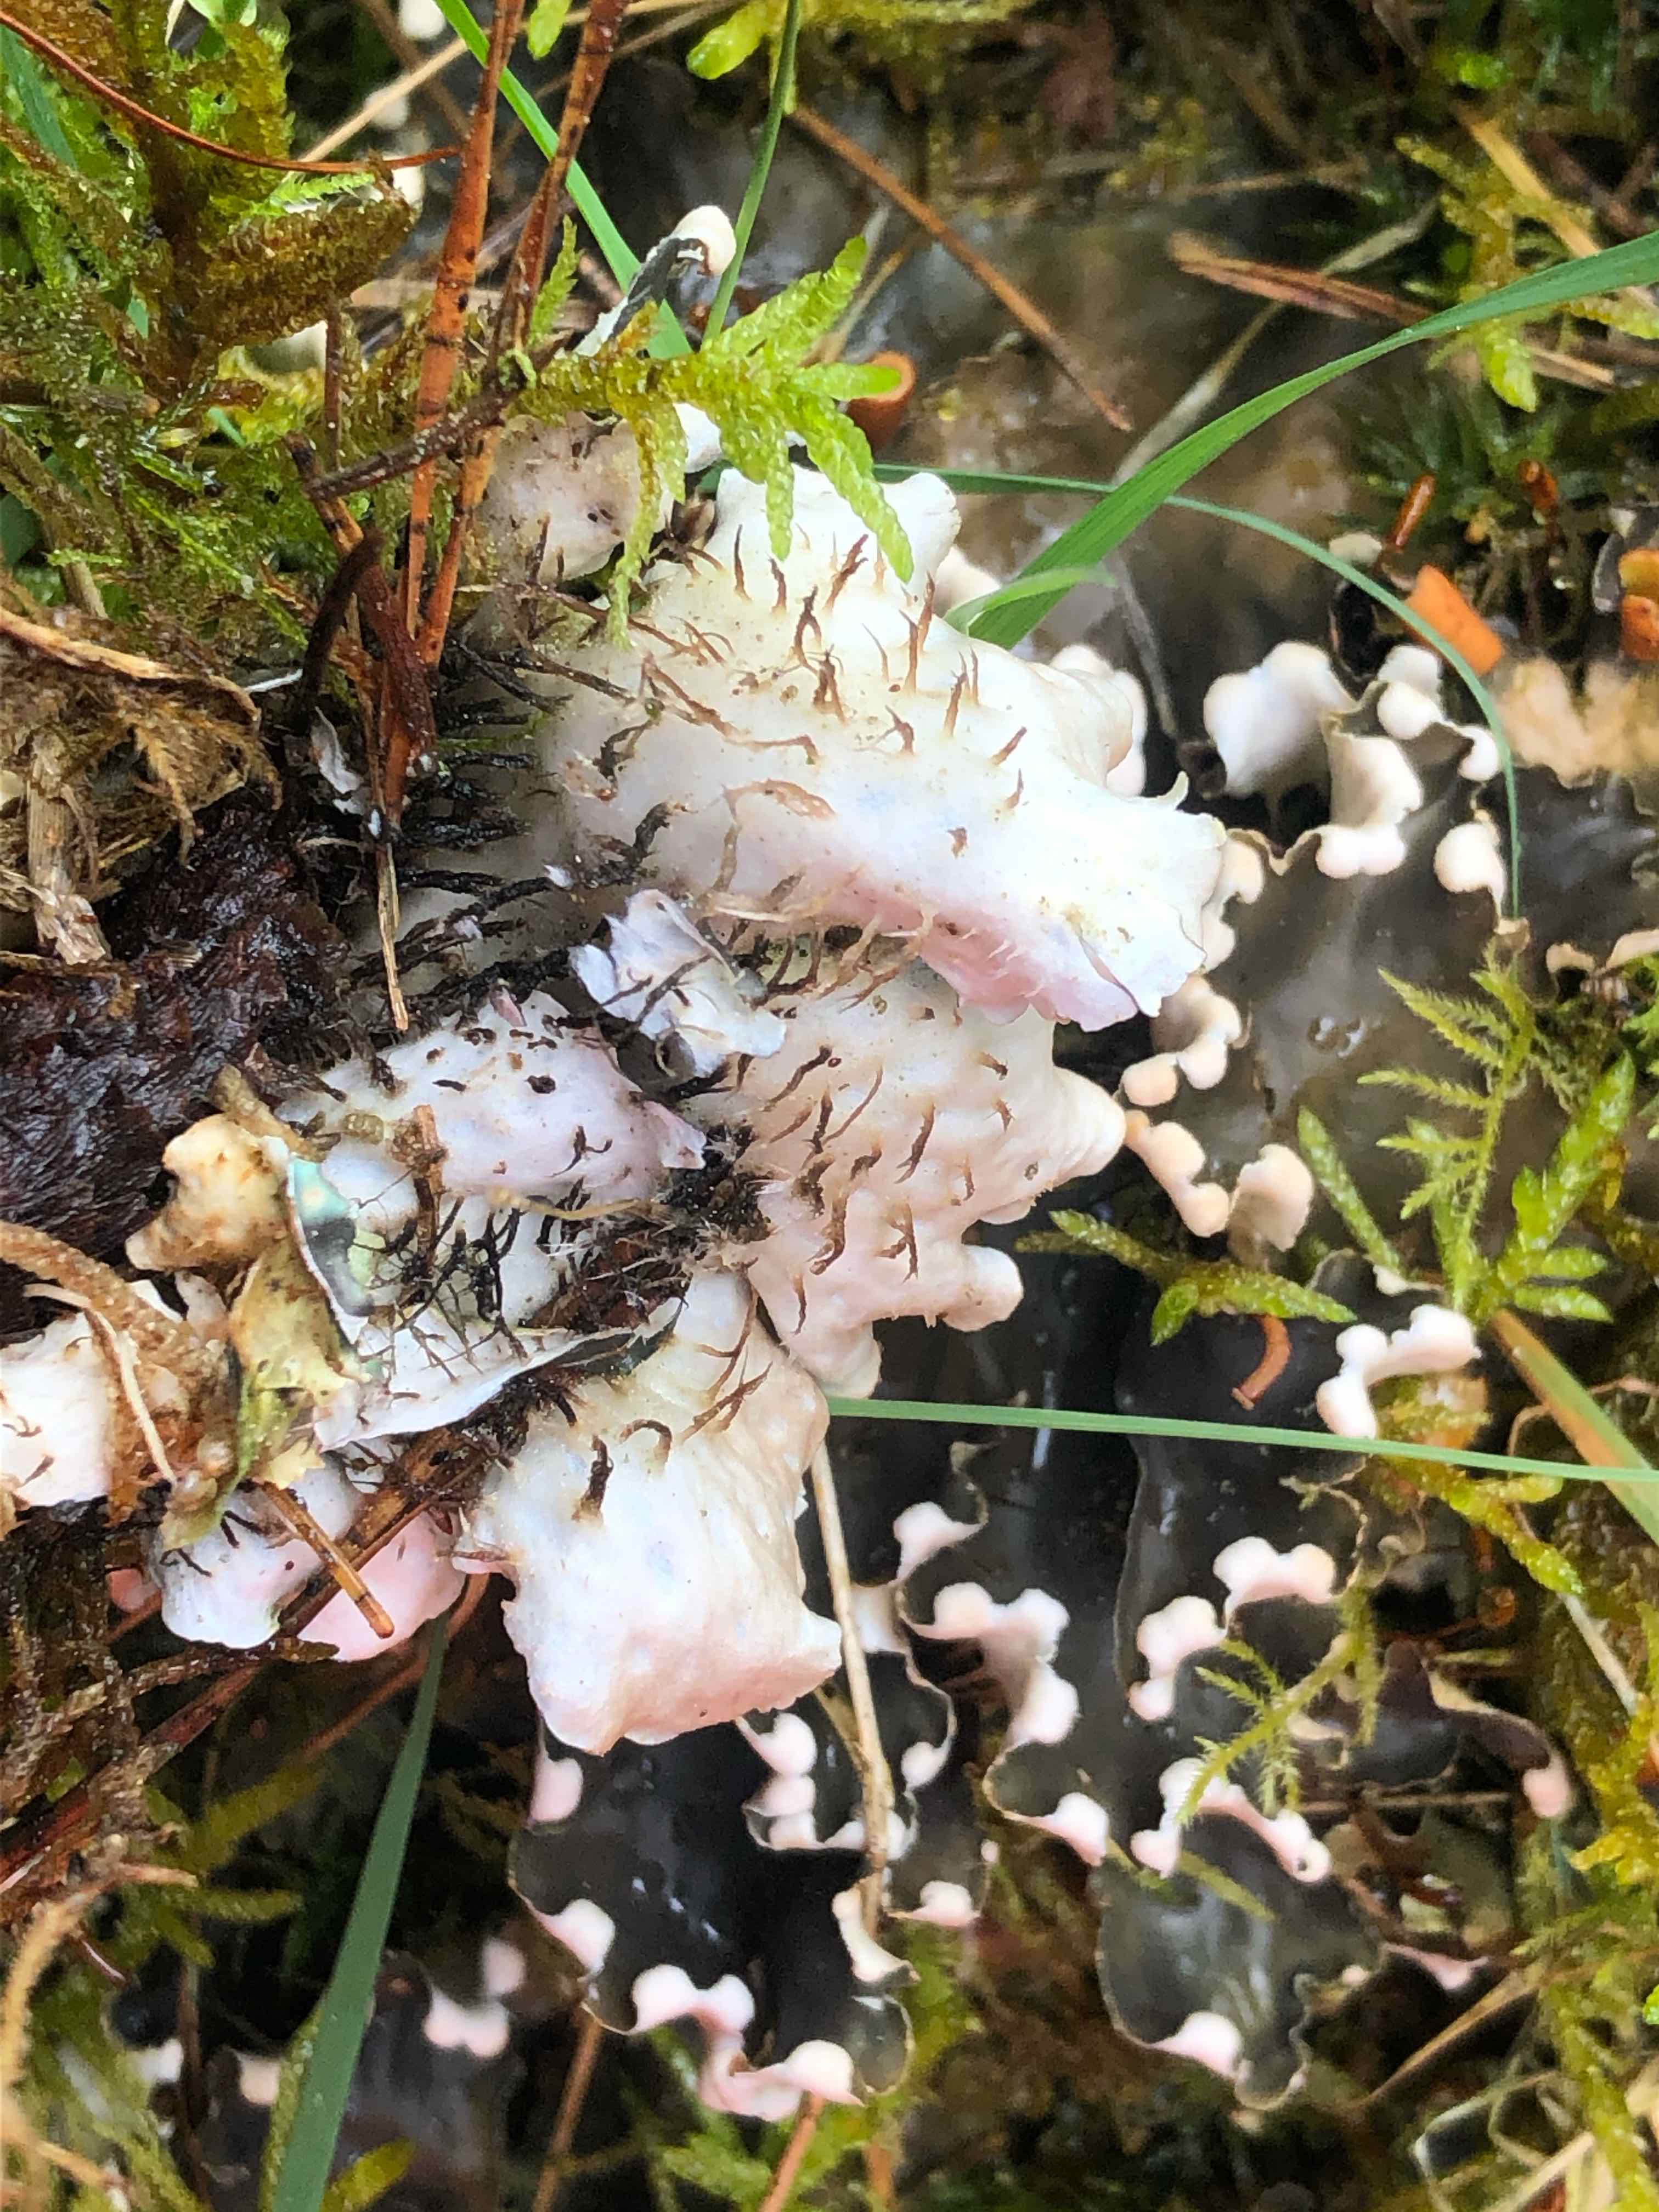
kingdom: Fungi
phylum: Ascomycota
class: Lecanoromycetes
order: Peltigerales
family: Peltigeraceae
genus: Peltigera
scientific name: Peltigera hymenina
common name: hinde-skjoldlav
